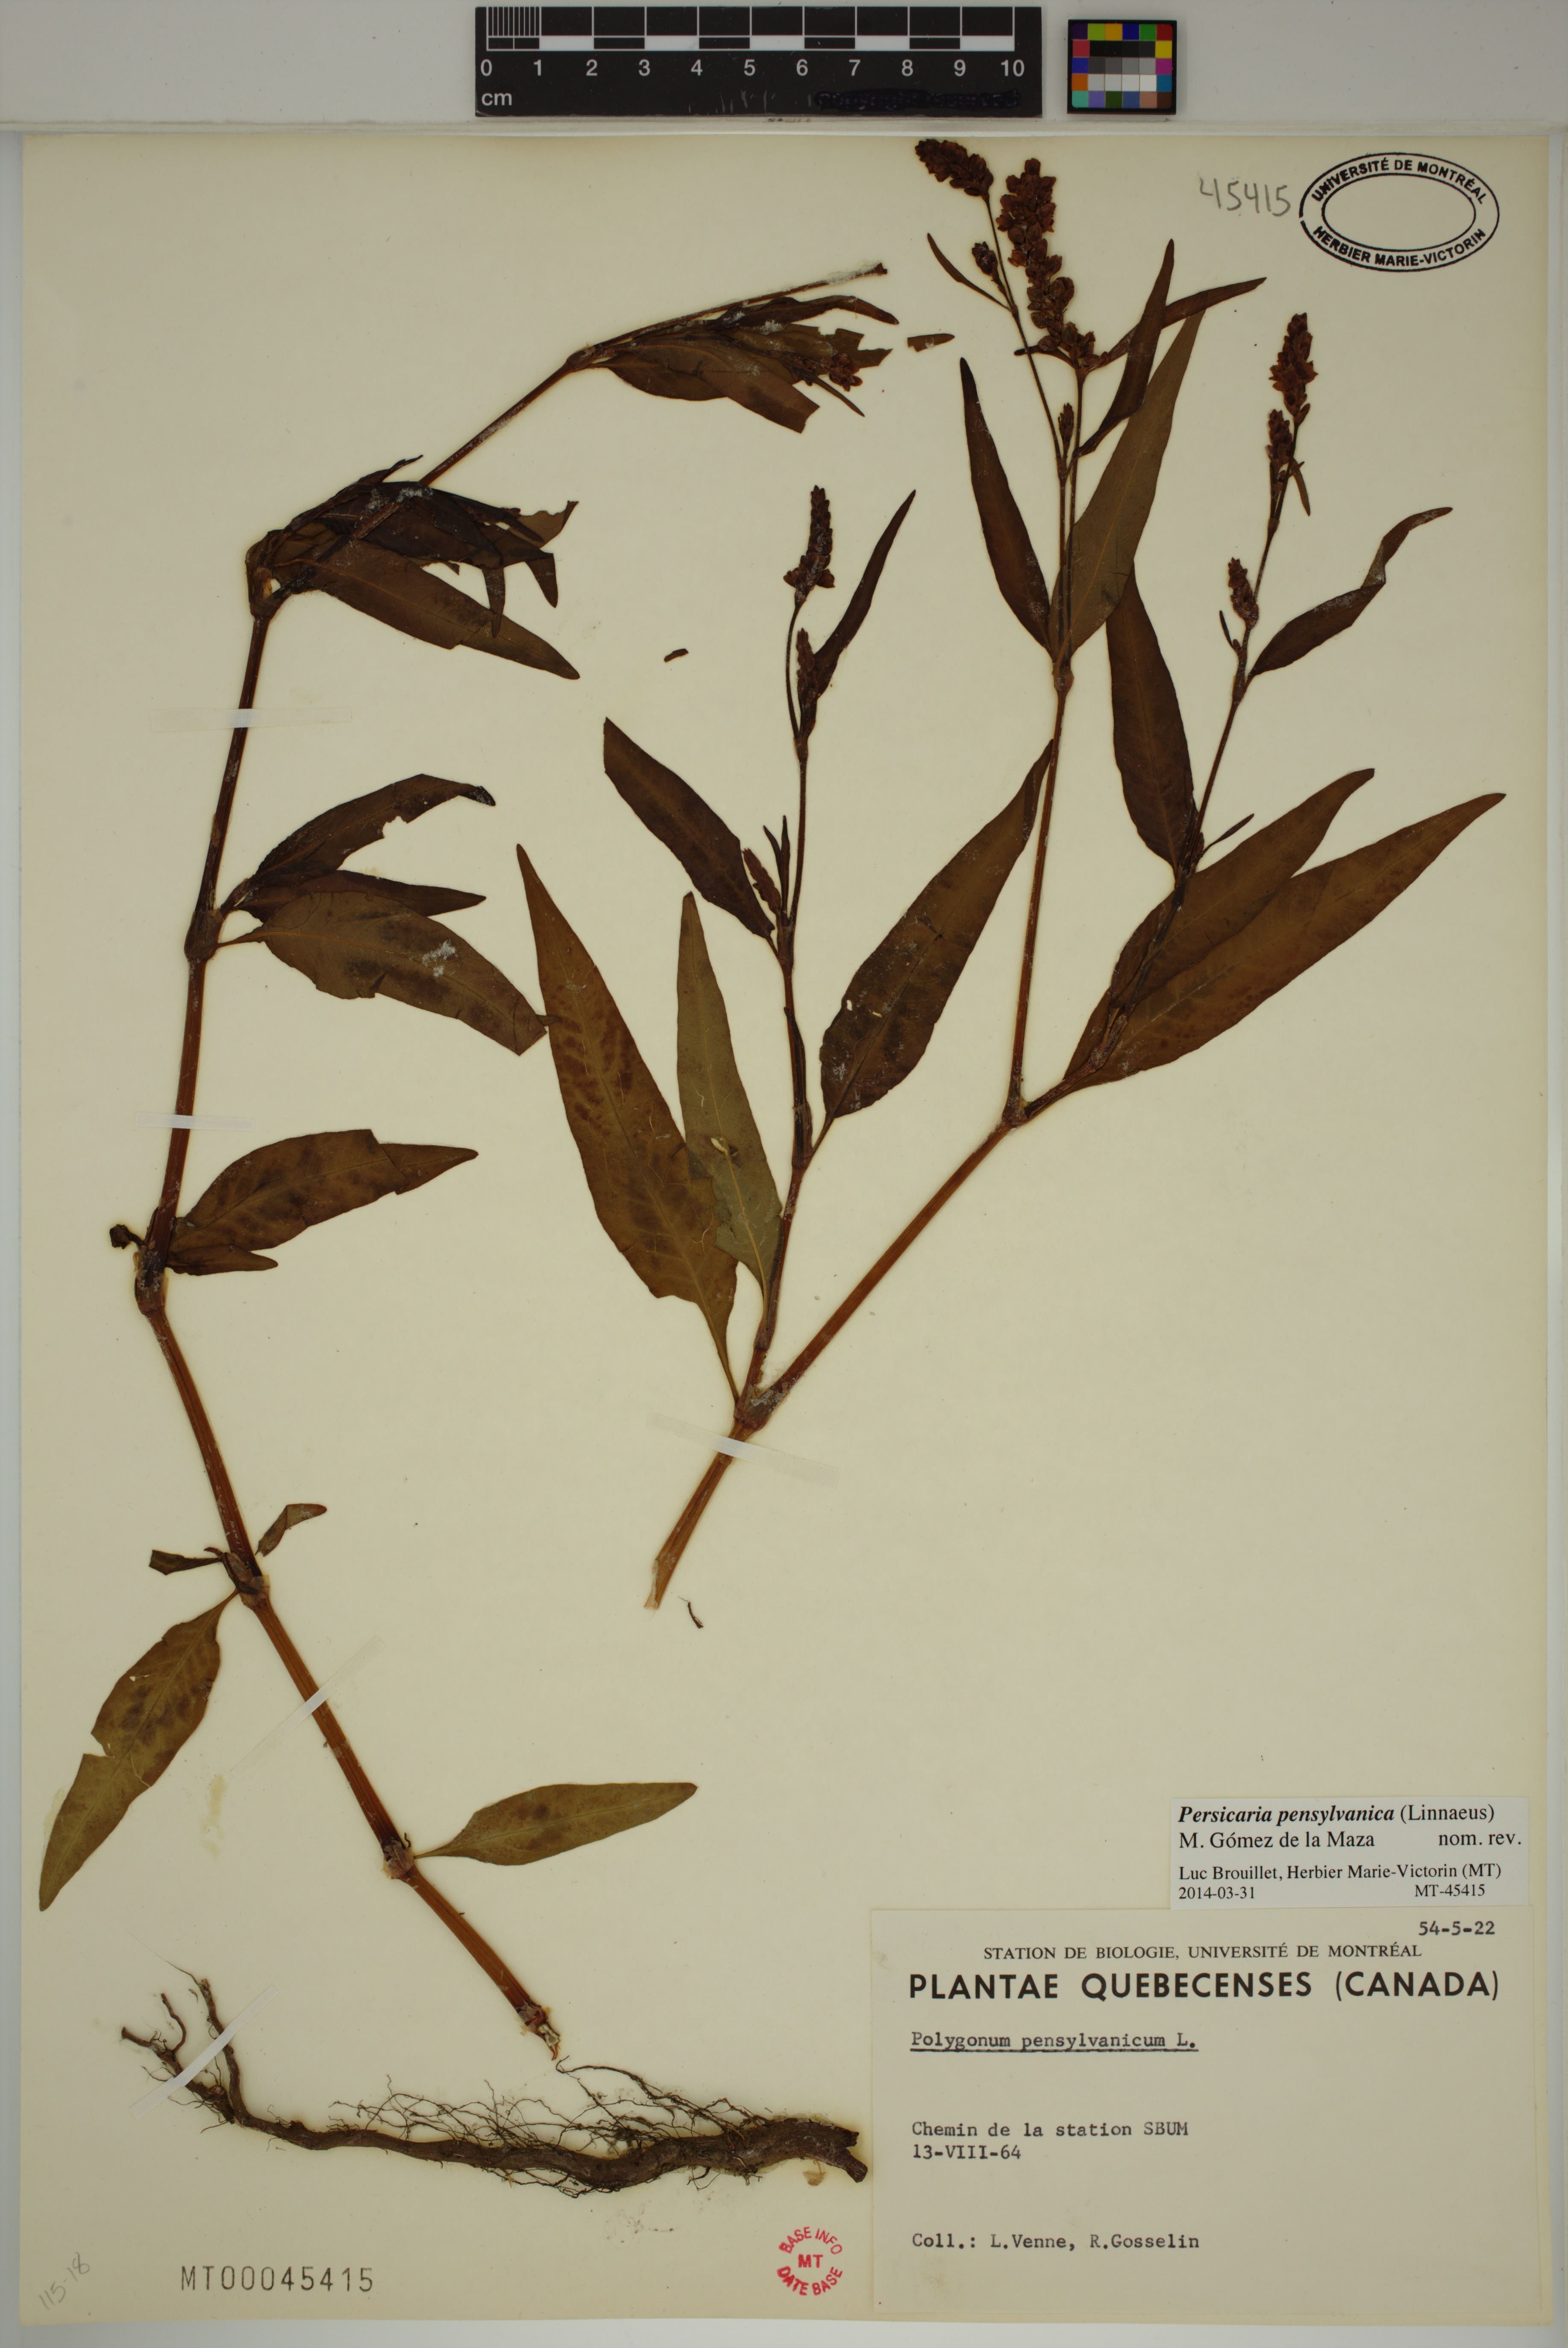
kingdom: Plantae
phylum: Tracheophyta
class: Magnoliopsida
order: Caryophyllales
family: Polygonaceae
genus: Persicaria
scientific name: Persicaria pensylvanica
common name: Pinkweed
